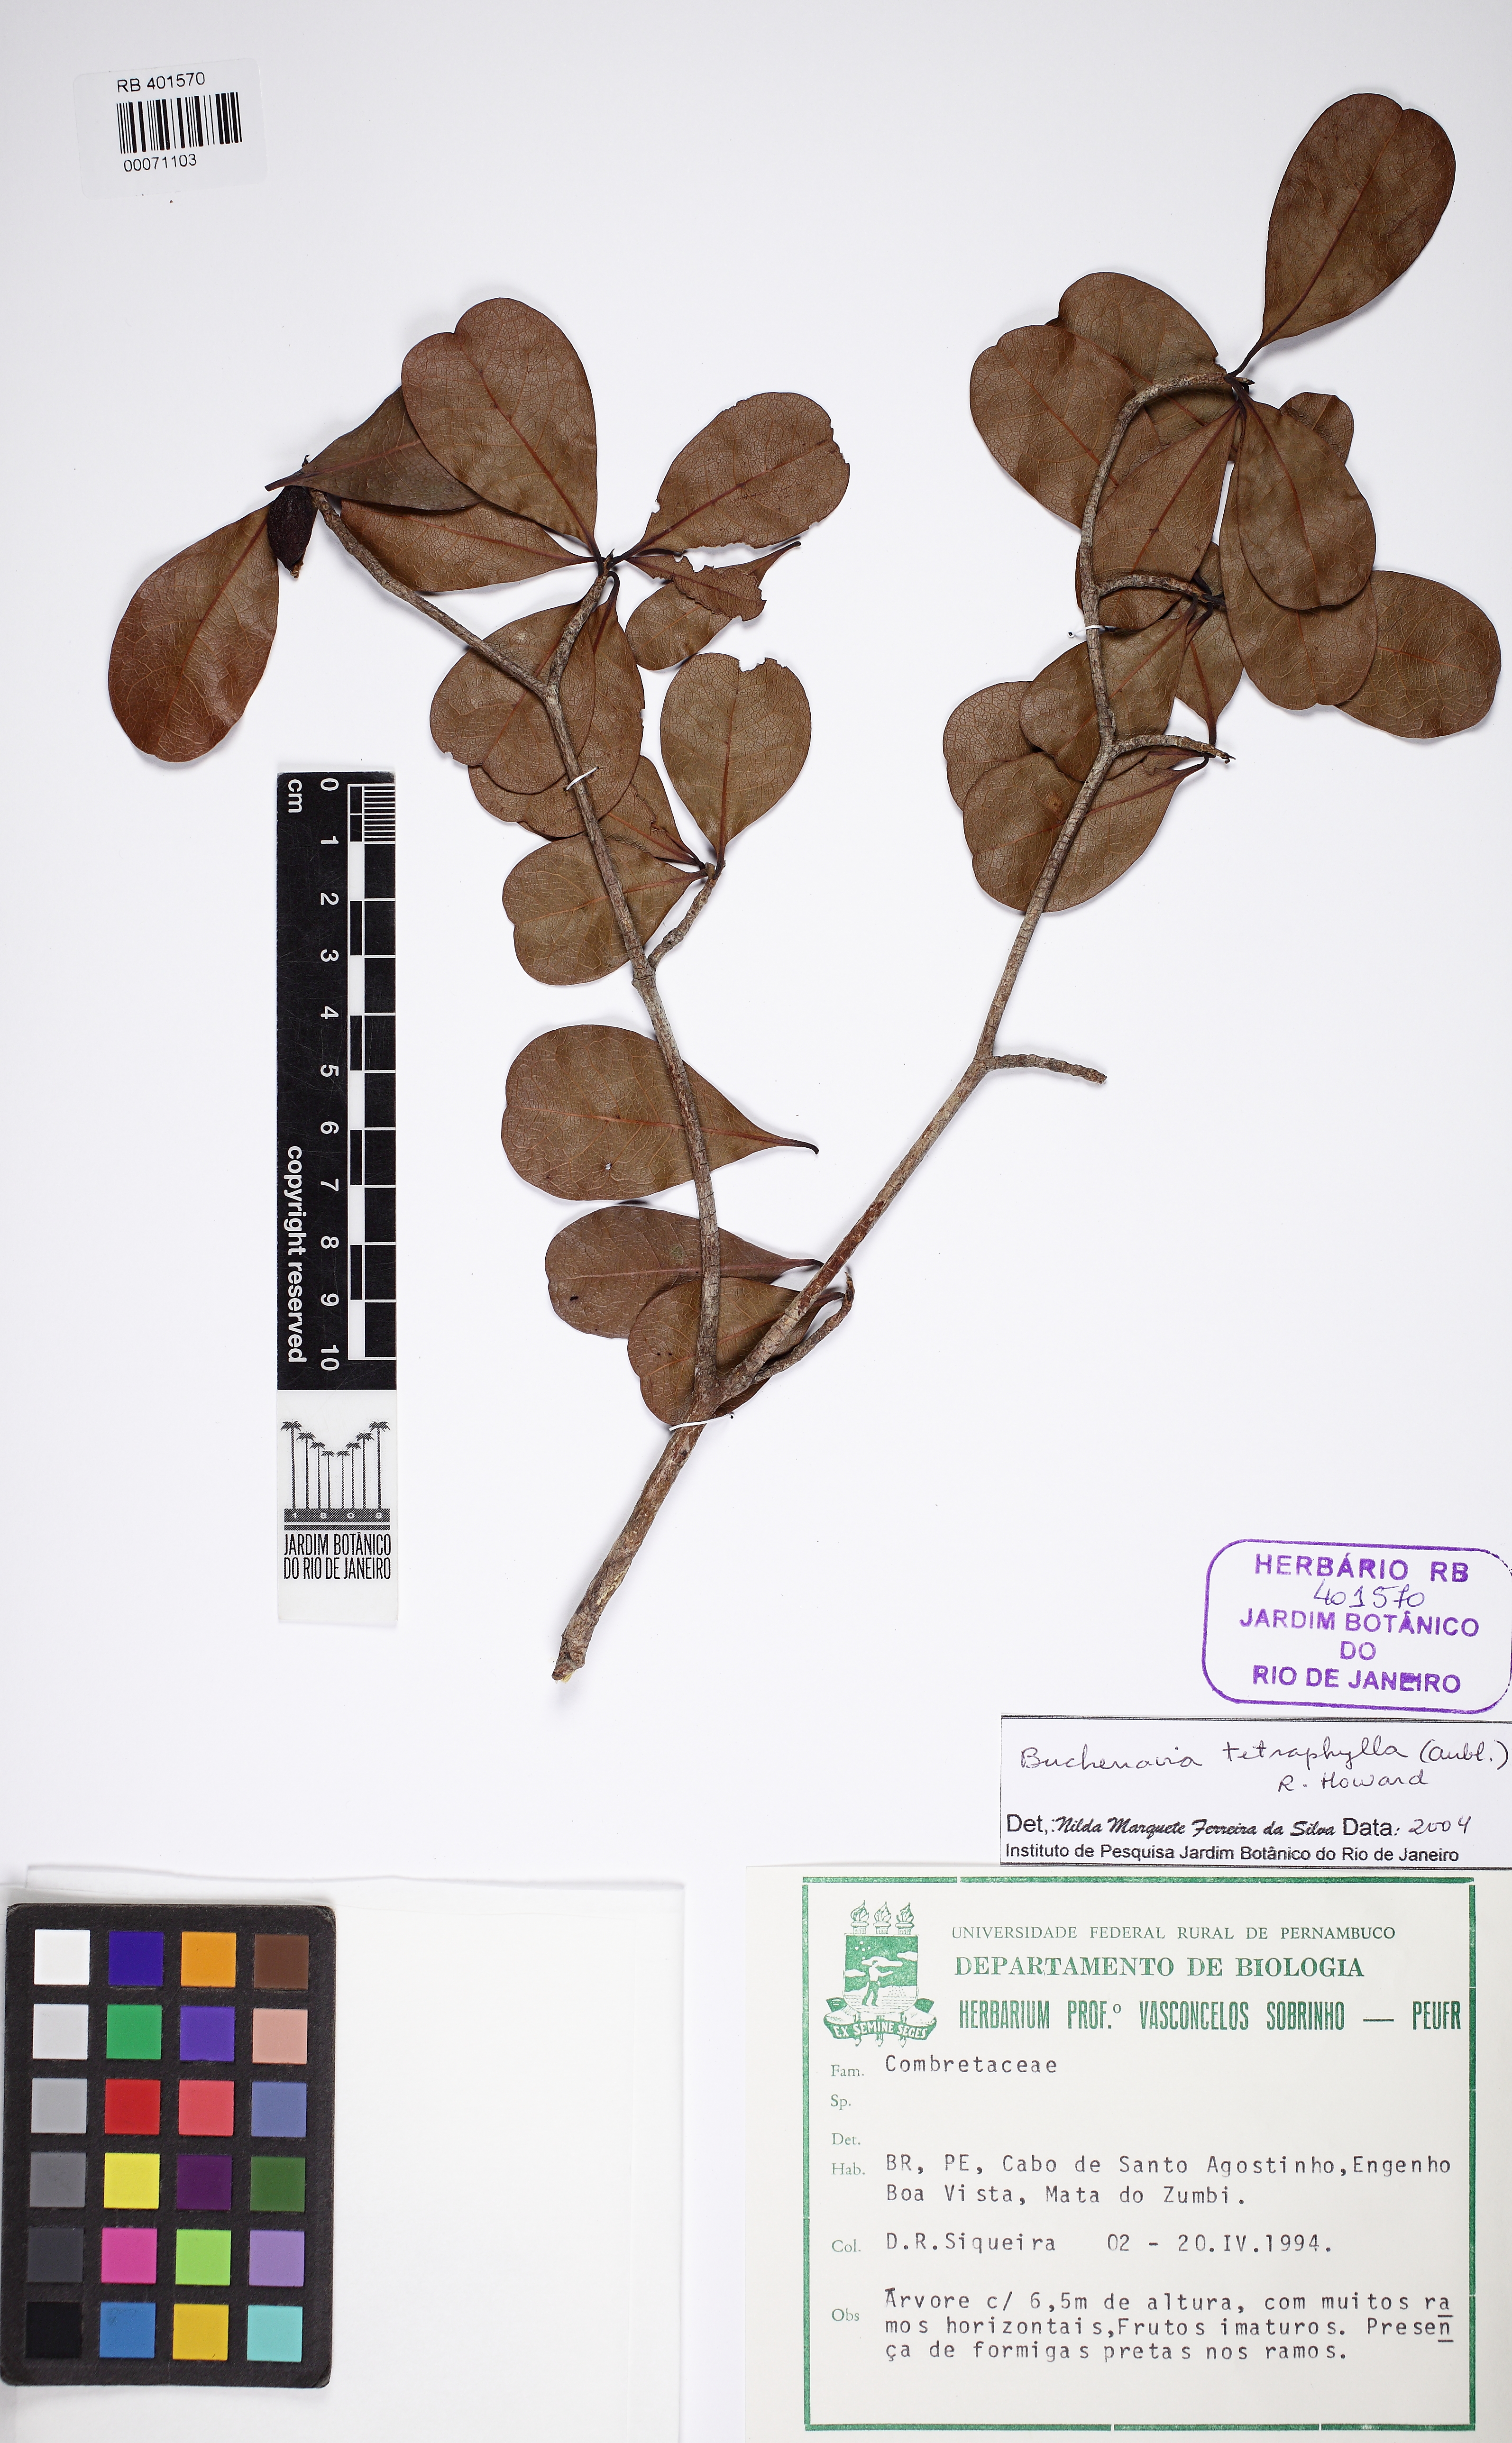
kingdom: Plantae
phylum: Tracheophyta
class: Magnoliopsida
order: Myrtales
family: Combretaceae
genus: Terminalia
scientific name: Terminalia tetraphylla
